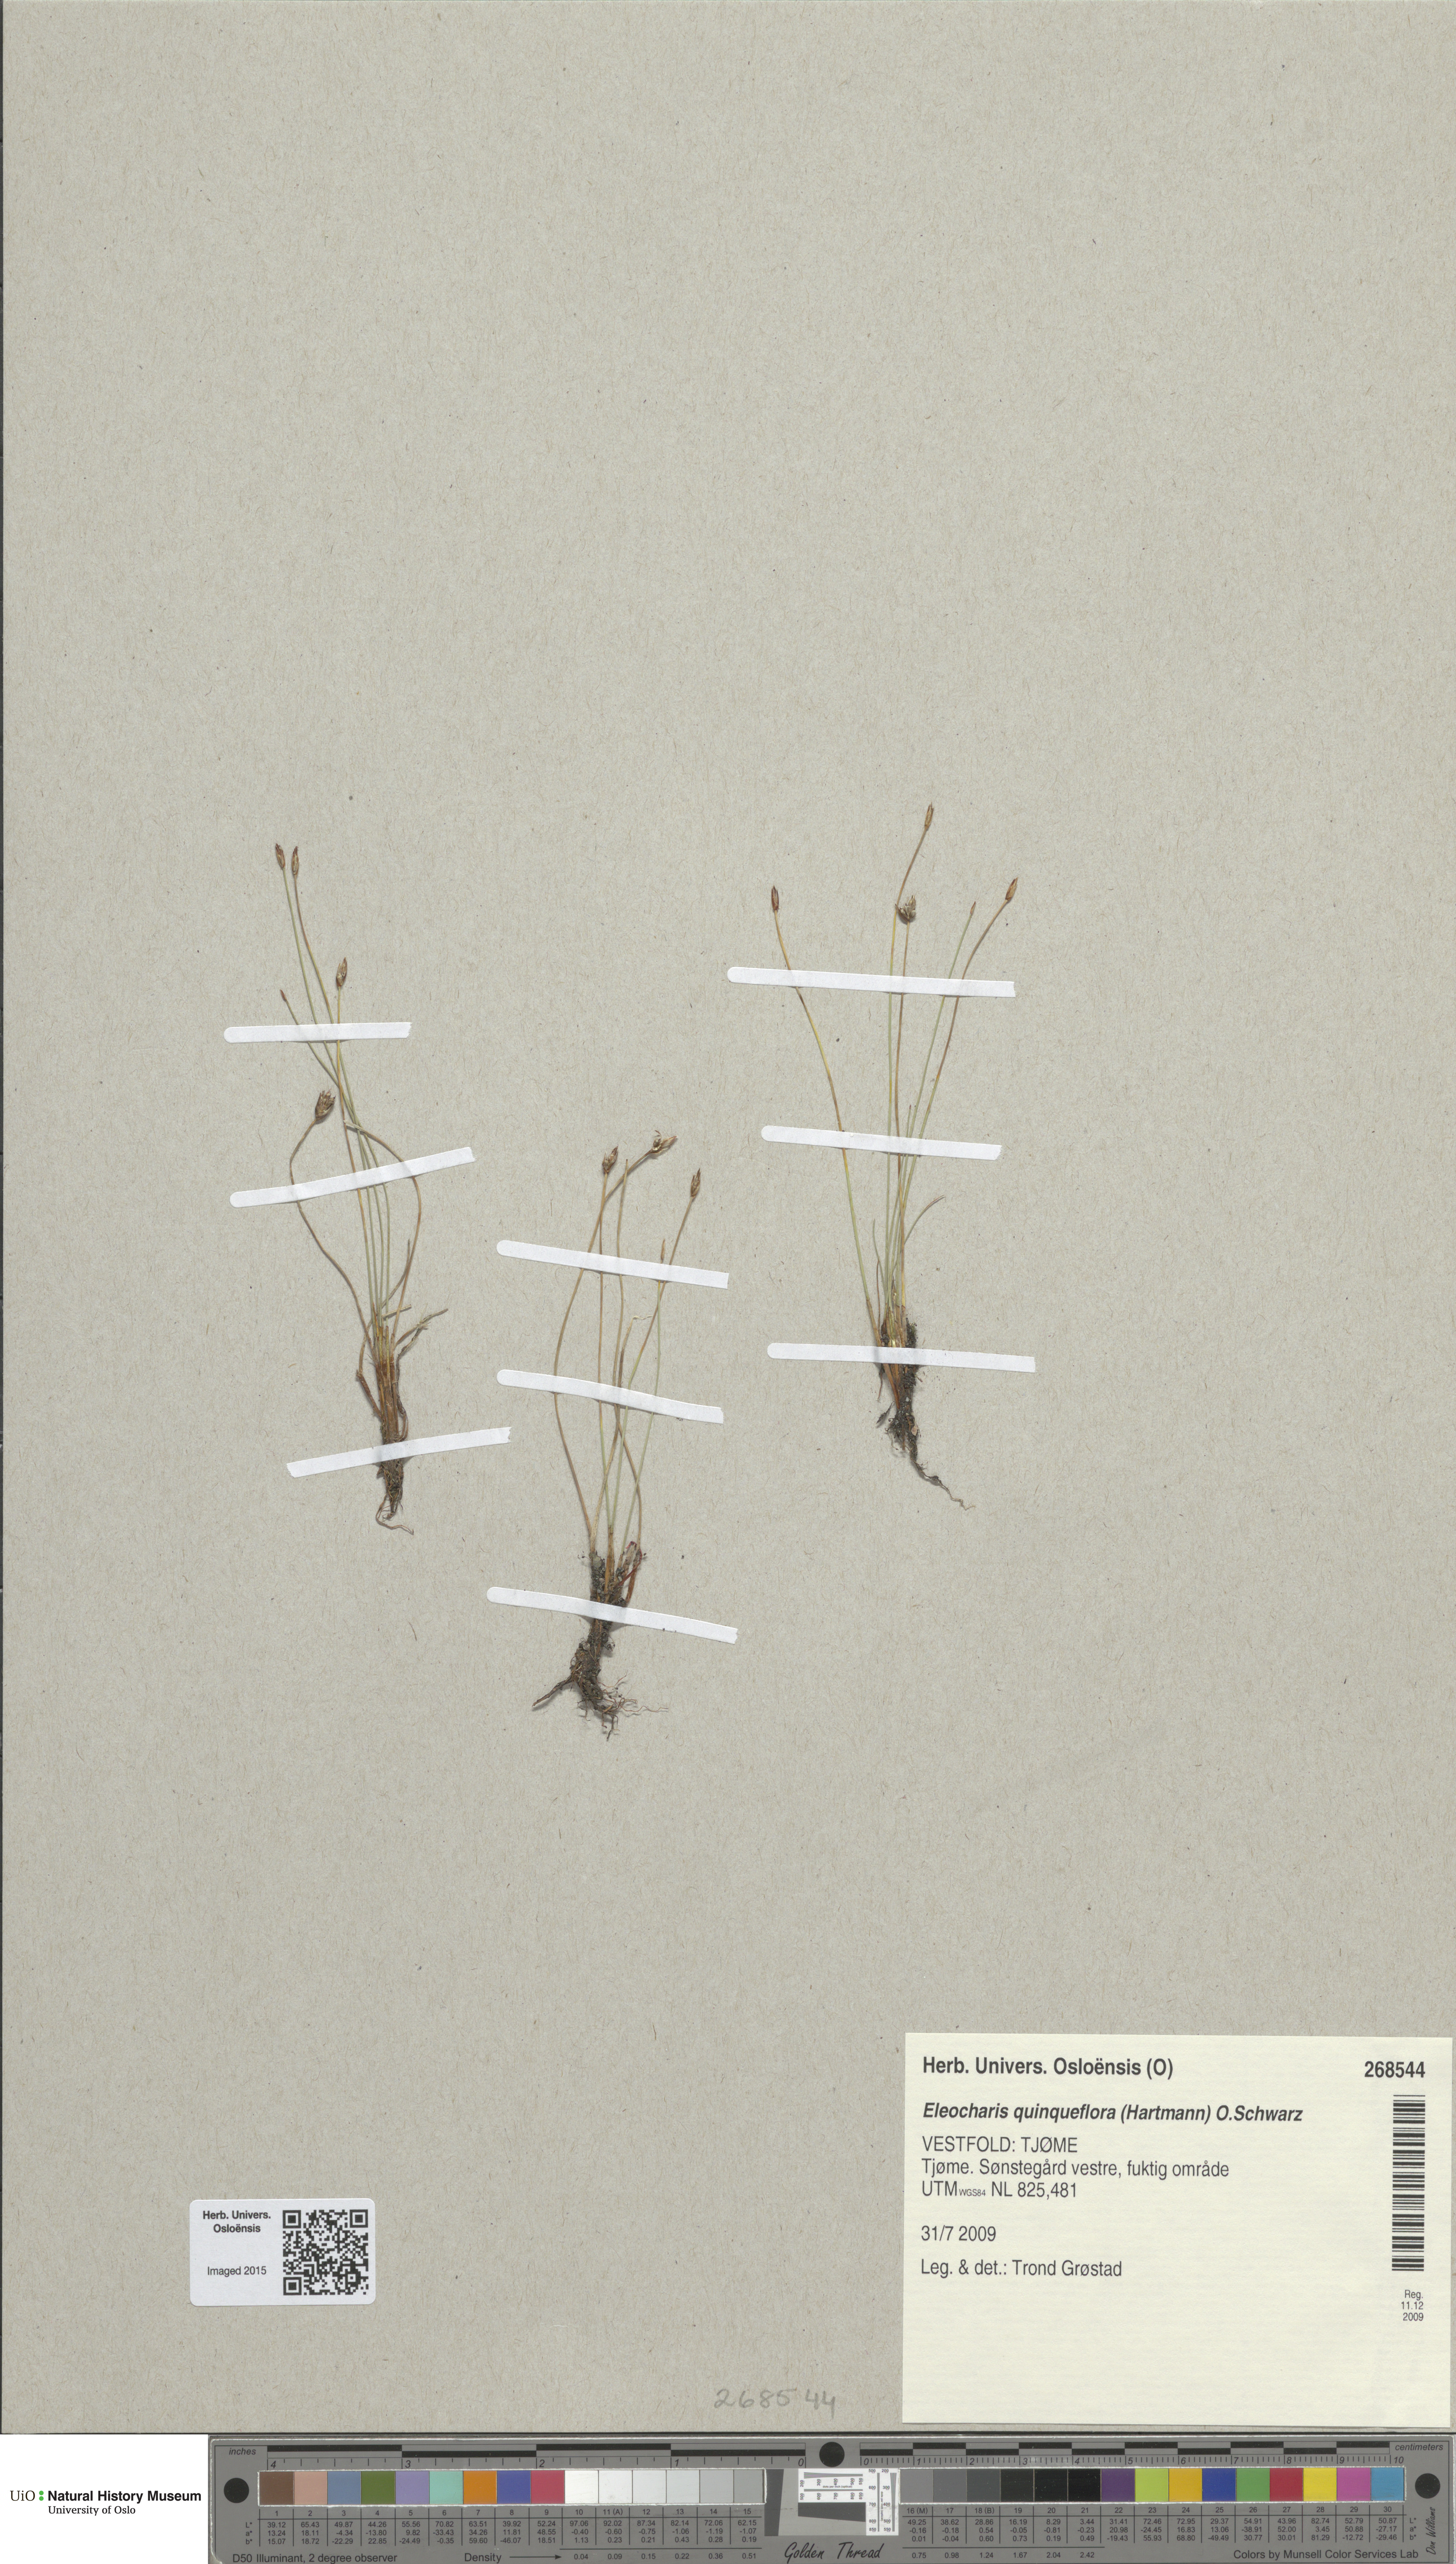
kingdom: Plantae
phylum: Tracheophyta
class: Liliopsida
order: Poales
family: Cyperaceae
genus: Eleocharis
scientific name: Eleocharis quinqueflora
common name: Few-flowered spike-rush
